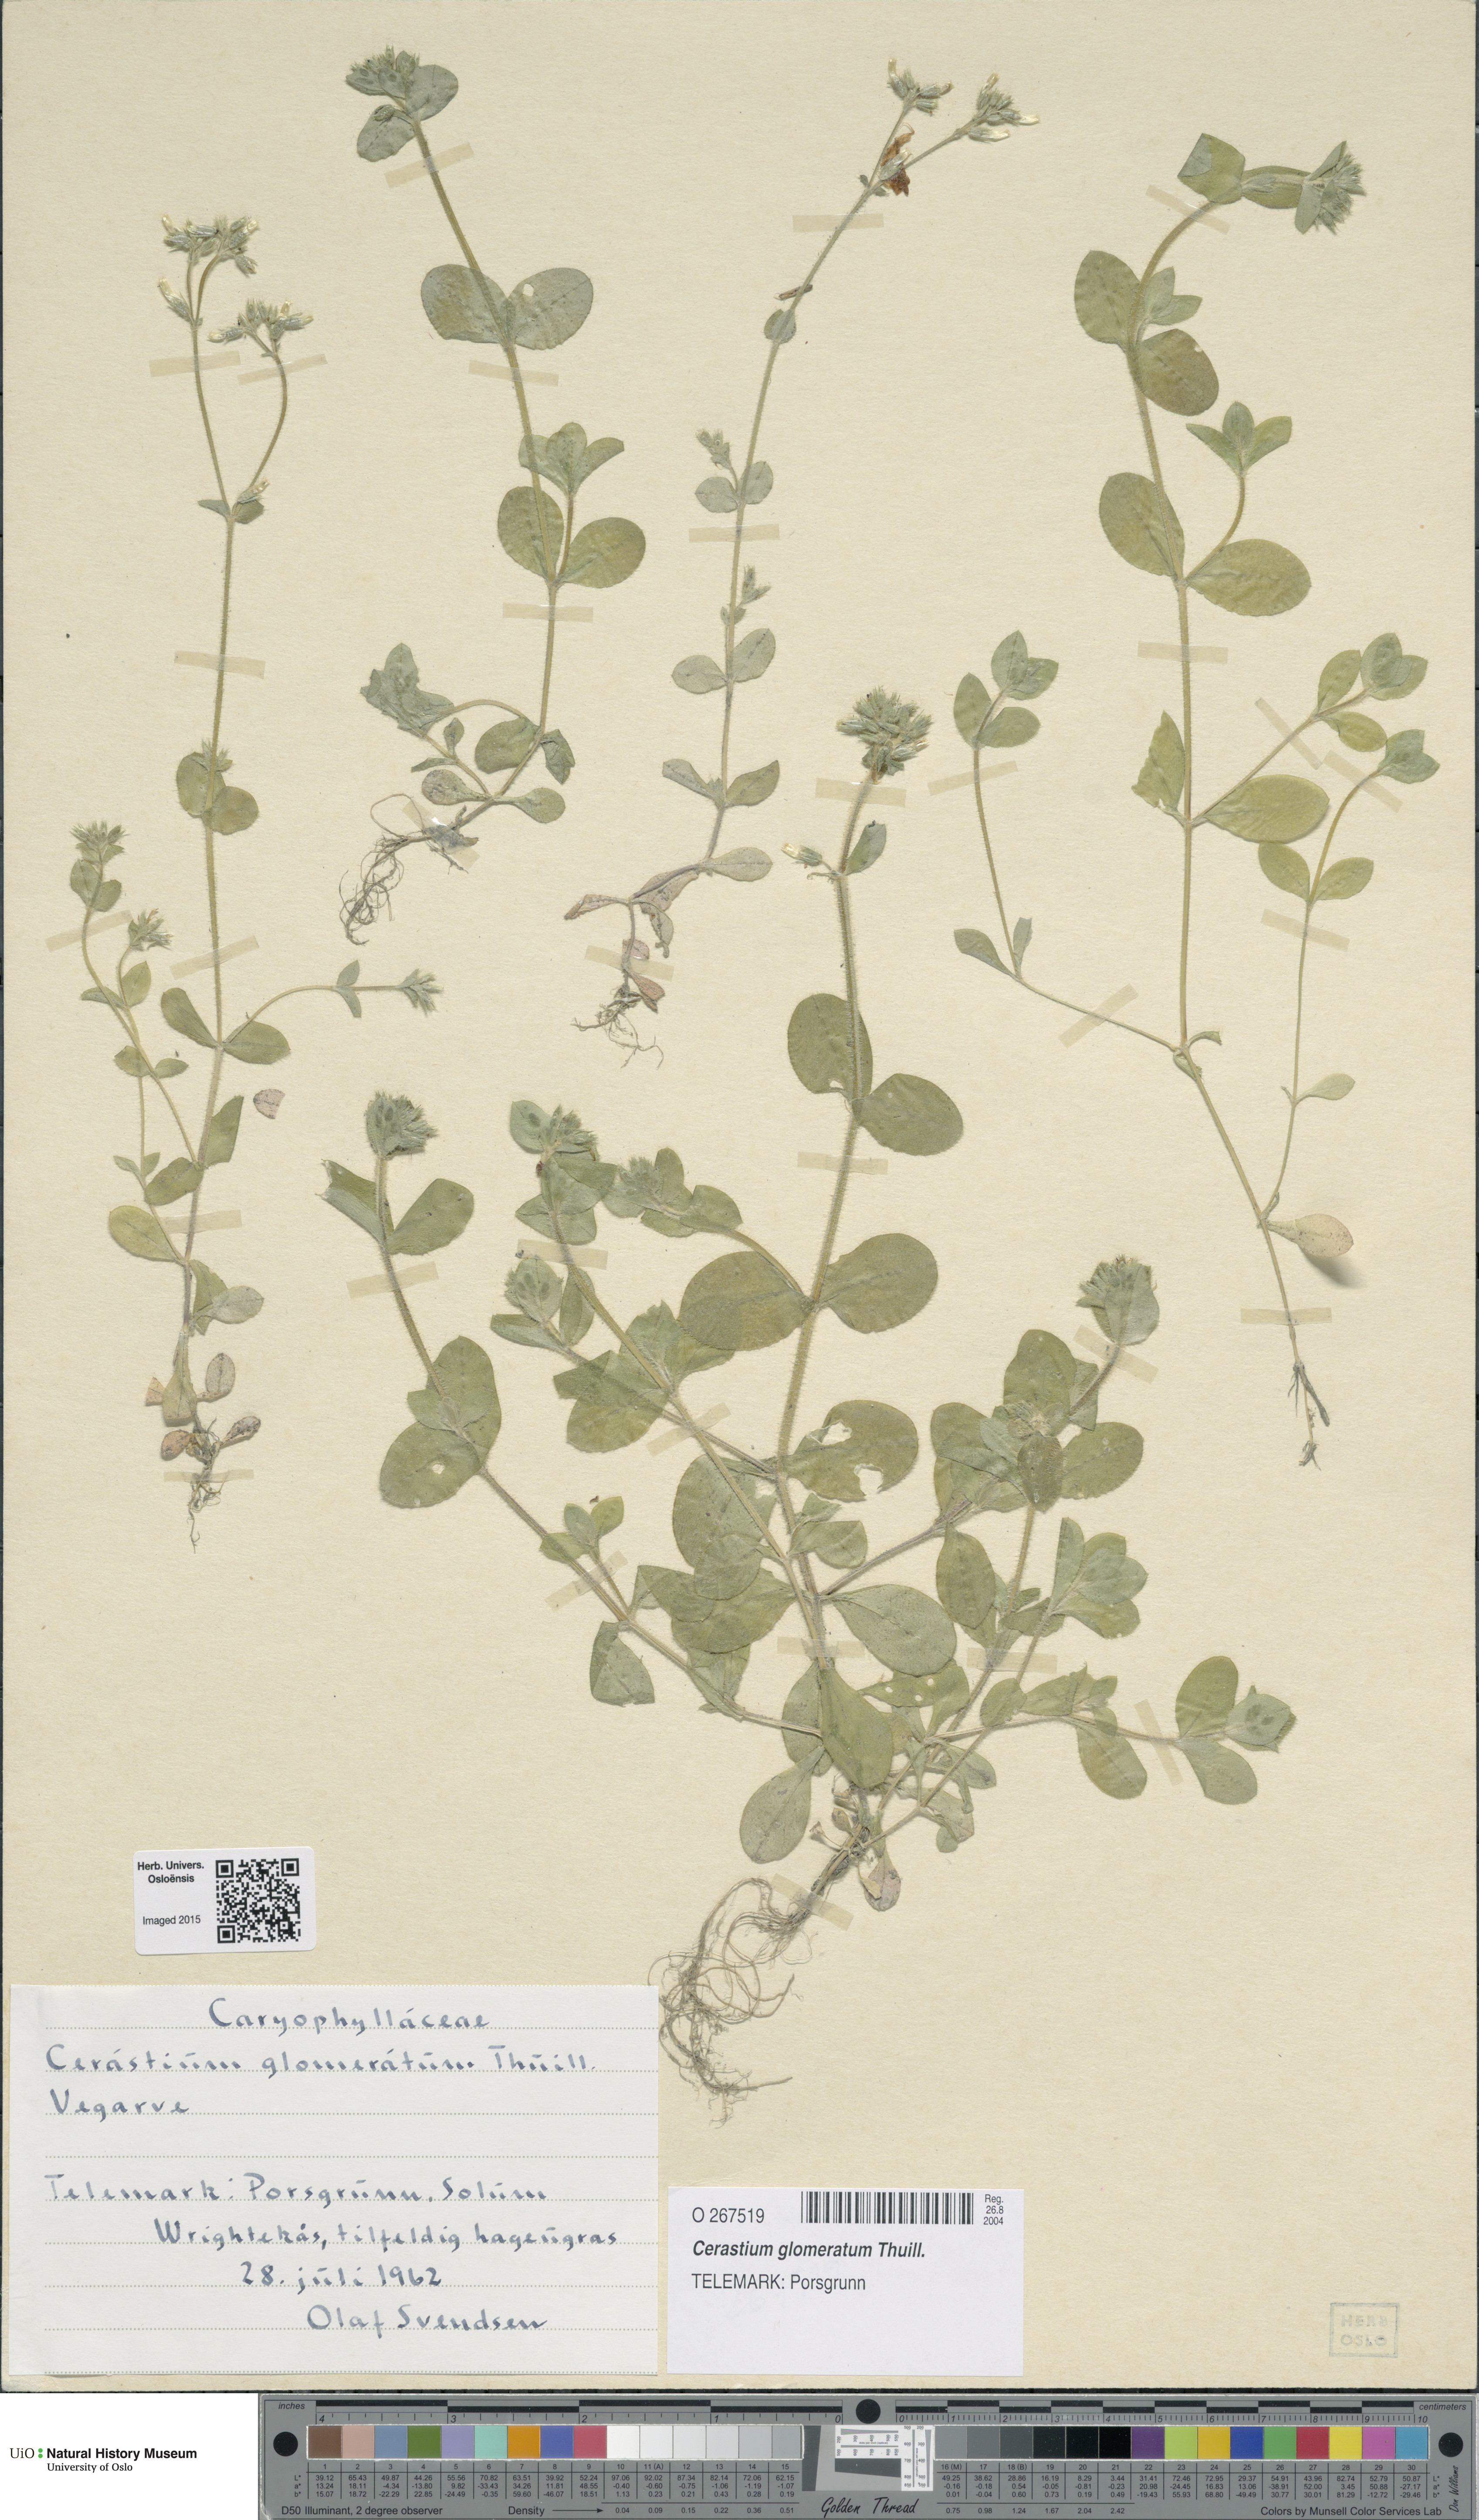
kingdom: Plantae
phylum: Tracheophyta
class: Magnoliopsida
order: Caryophyllales
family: Caryophyllaceae
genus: Cerastium
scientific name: Cerastium glomeratum
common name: Sticky chickweed
